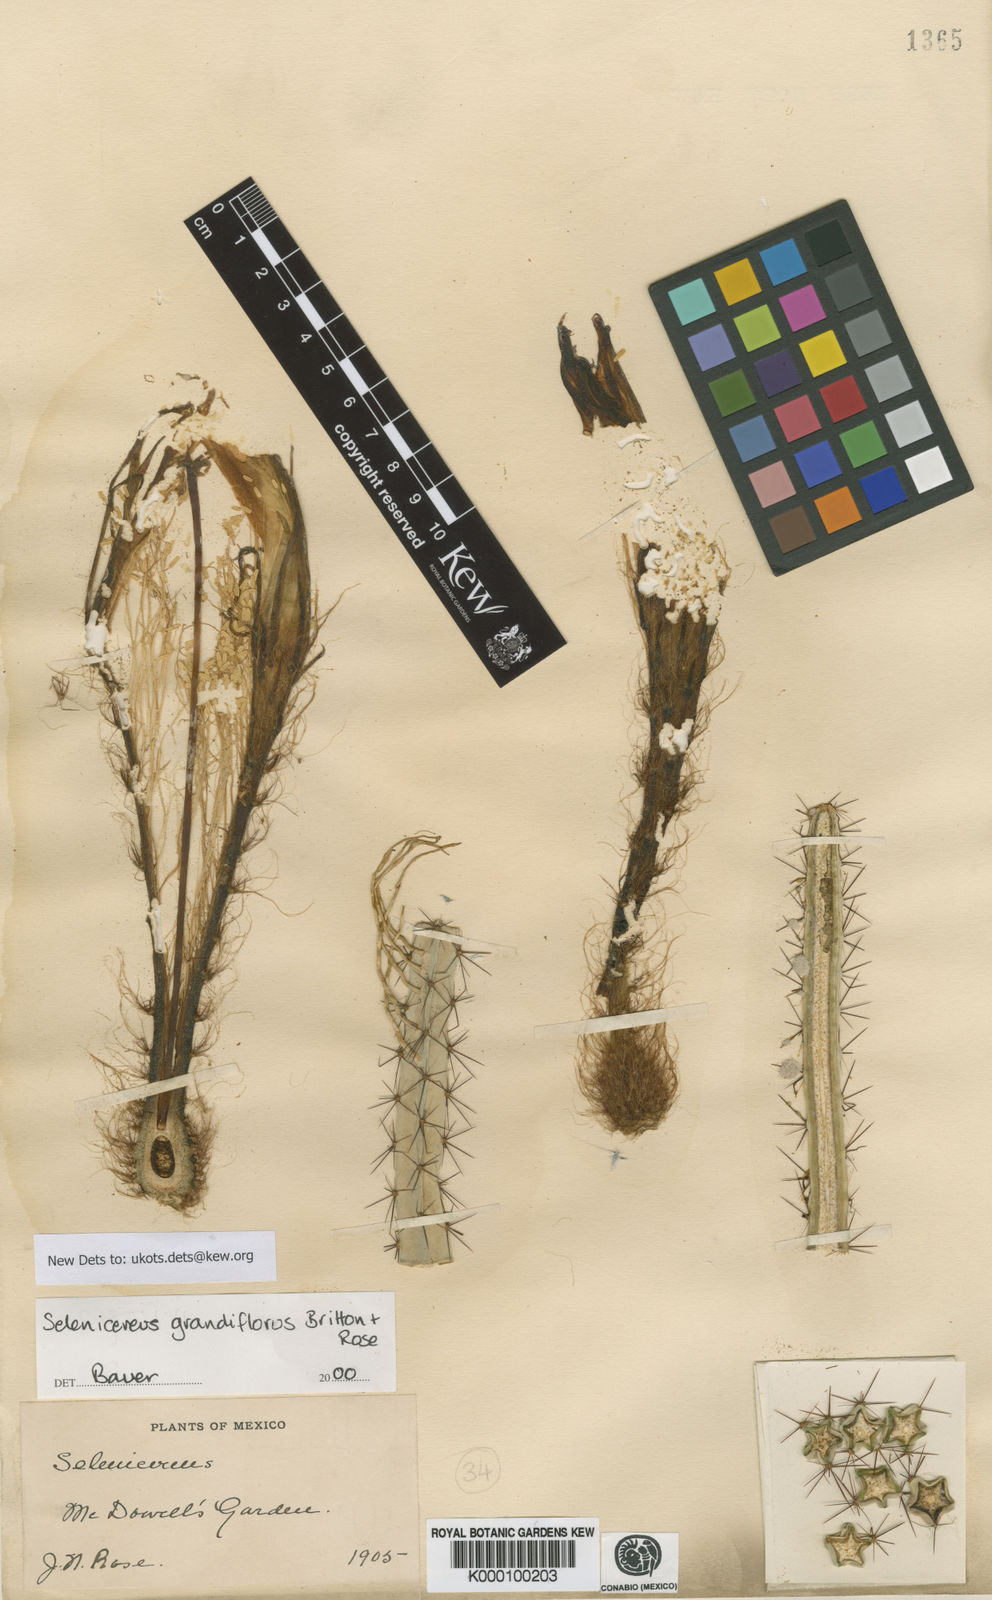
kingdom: Plantae
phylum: Tracheophyta
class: Magnoliopsida
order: Caryophyllales
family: Cactaceae
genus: Selenicereus
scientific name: Selenicereus grandiflorus
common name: Queen of the night
